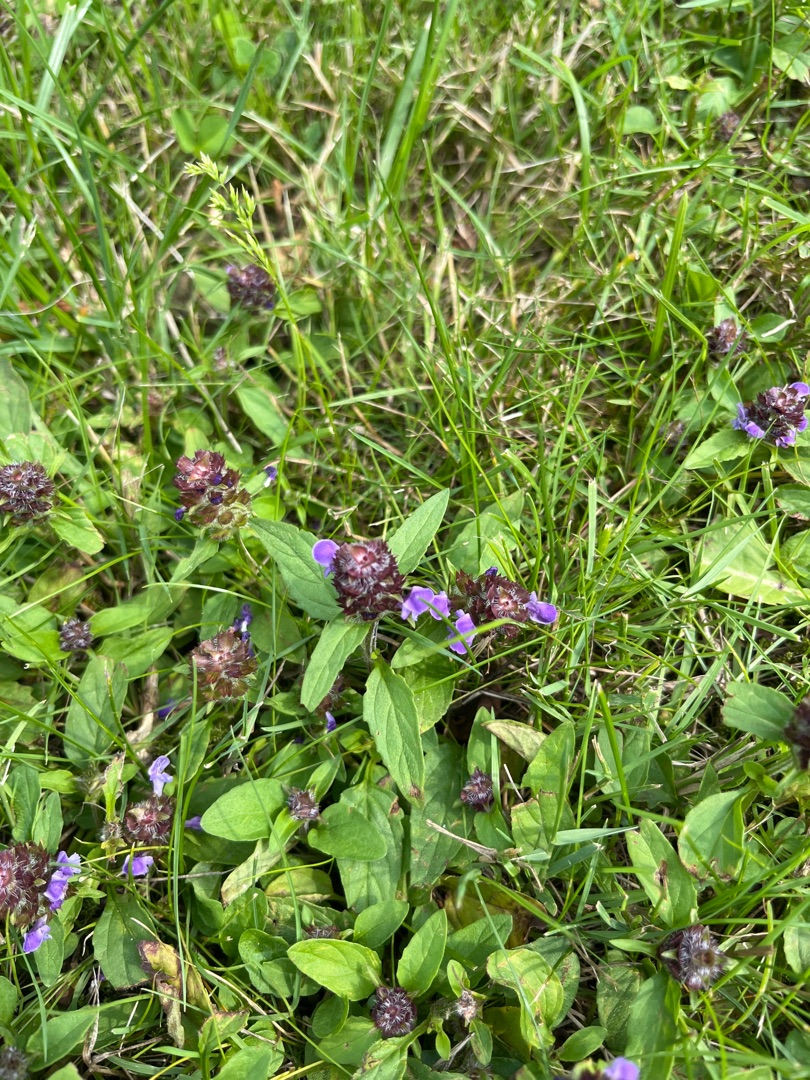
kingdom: Plantae
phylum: Tracheophyta
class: Magnoliopsida
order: Lamiales
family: Lamiaceae
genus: Prunella
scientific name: Prunella vulgaris
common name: Almindelig brunelle
